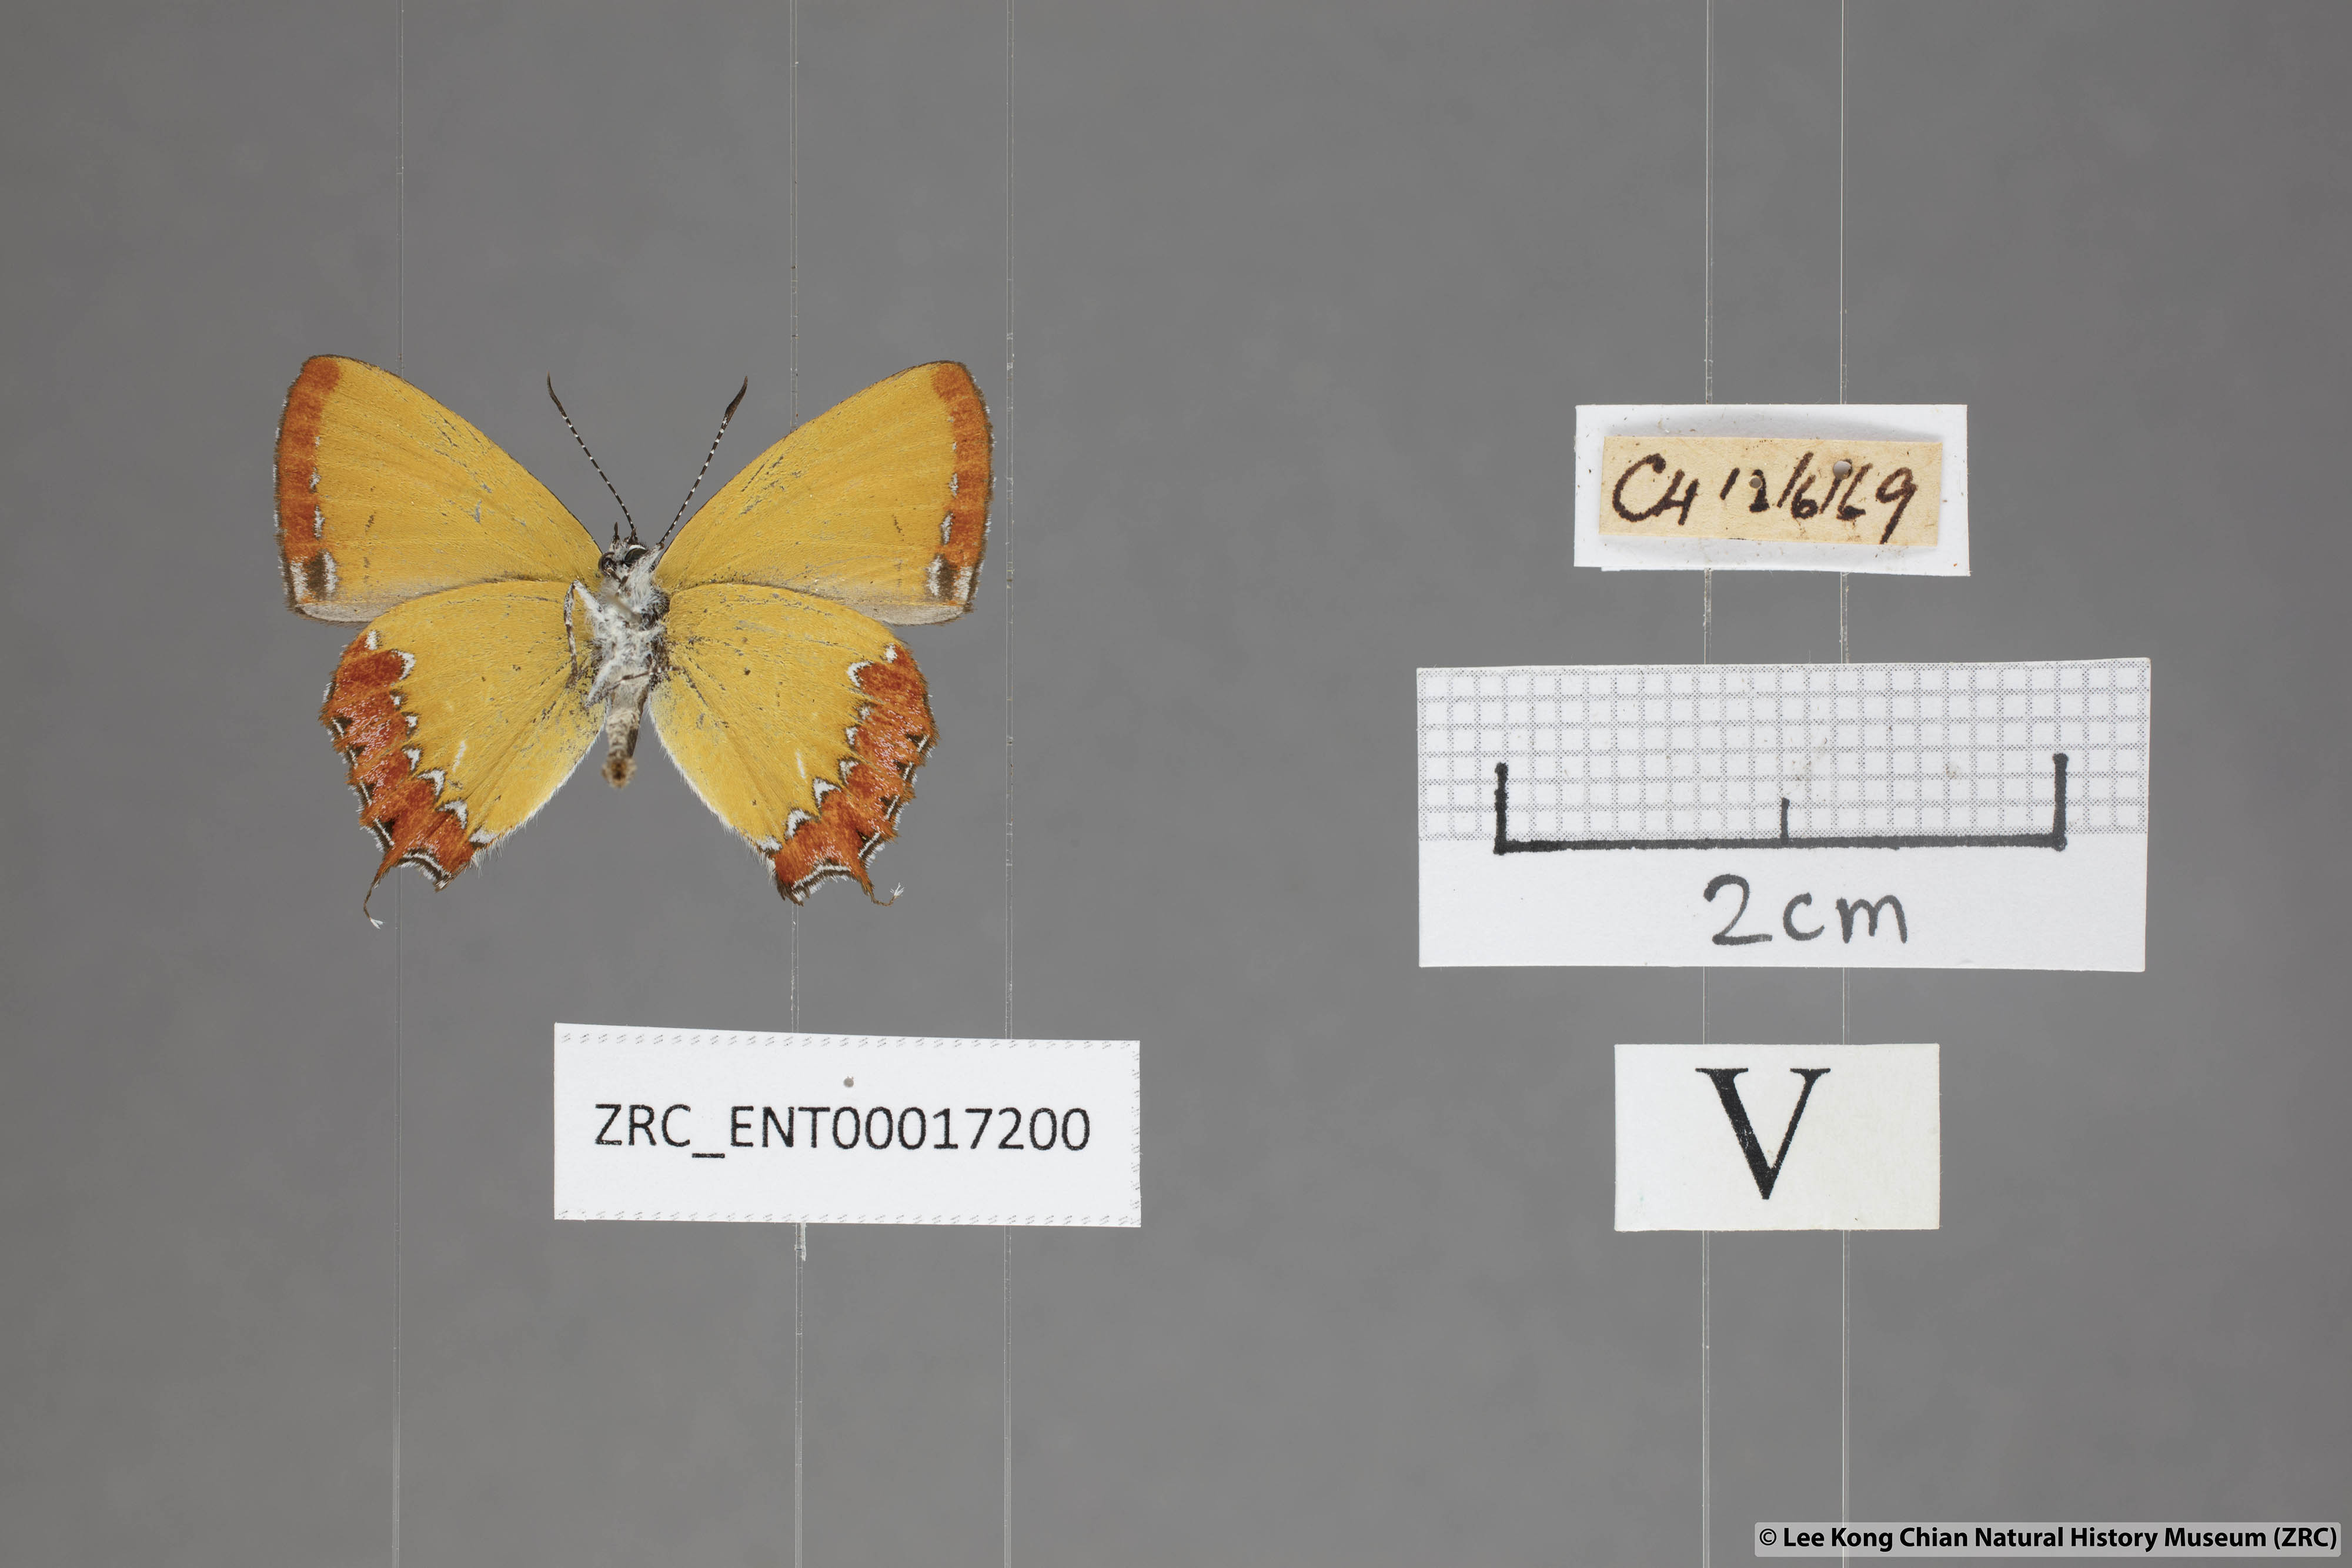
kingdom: Animalia
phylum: Arthropoda
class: Insecta
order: Lepidoptera
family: Lycaenidae
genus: Heliophorus
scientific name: Heliophorus epicles
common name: Purple sapphire
